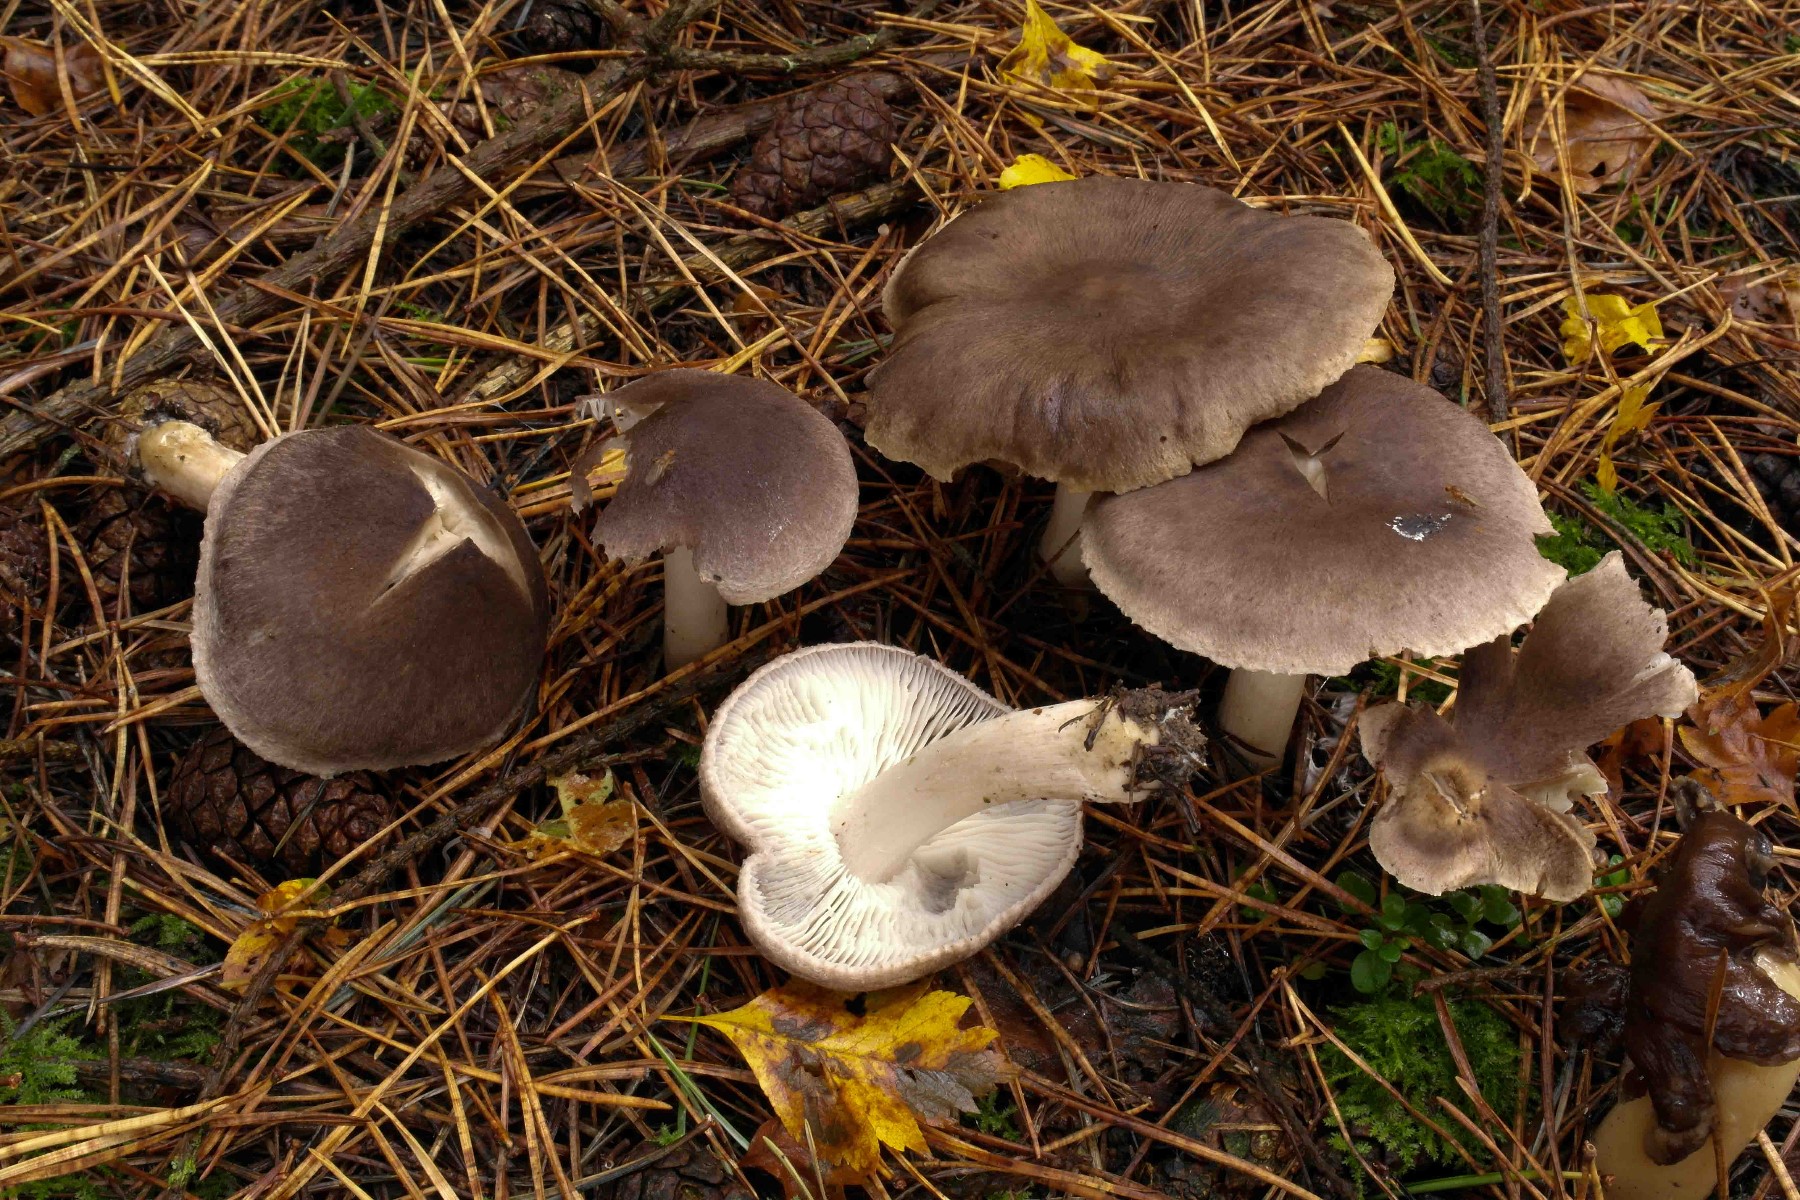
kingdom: Fungi
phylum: Basidiomycota
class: Agaricomycetes
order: Agaricales
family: Tricholomataceae
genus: Tricholoma
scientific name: Tricholoma terreum
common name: jordfarvet ridderhat
